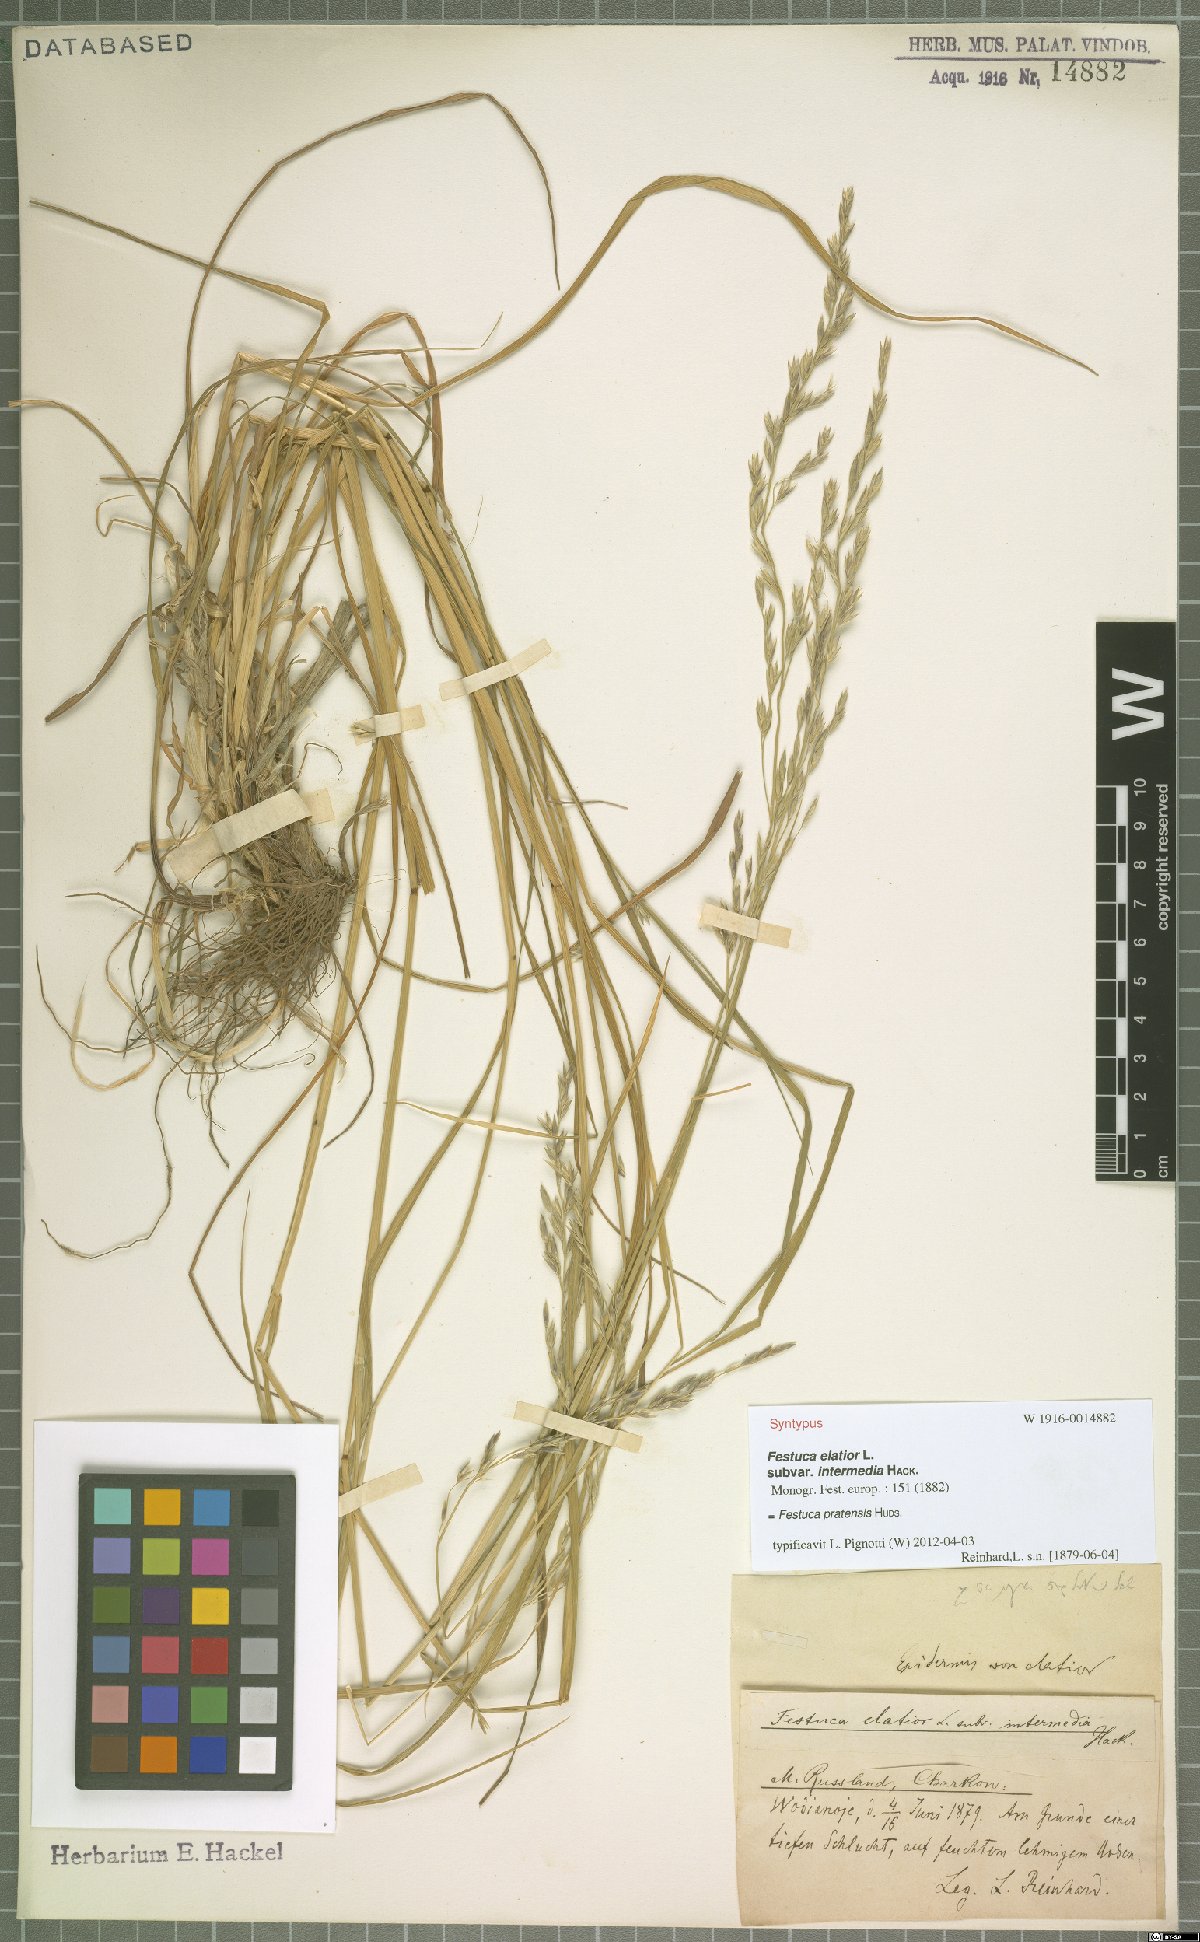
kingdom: Plantae
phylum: Tracheophyta
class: Liliopsida
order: Poales
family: Poaceae
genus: Lolium
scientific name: Lolium pratense
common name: Dover grass
